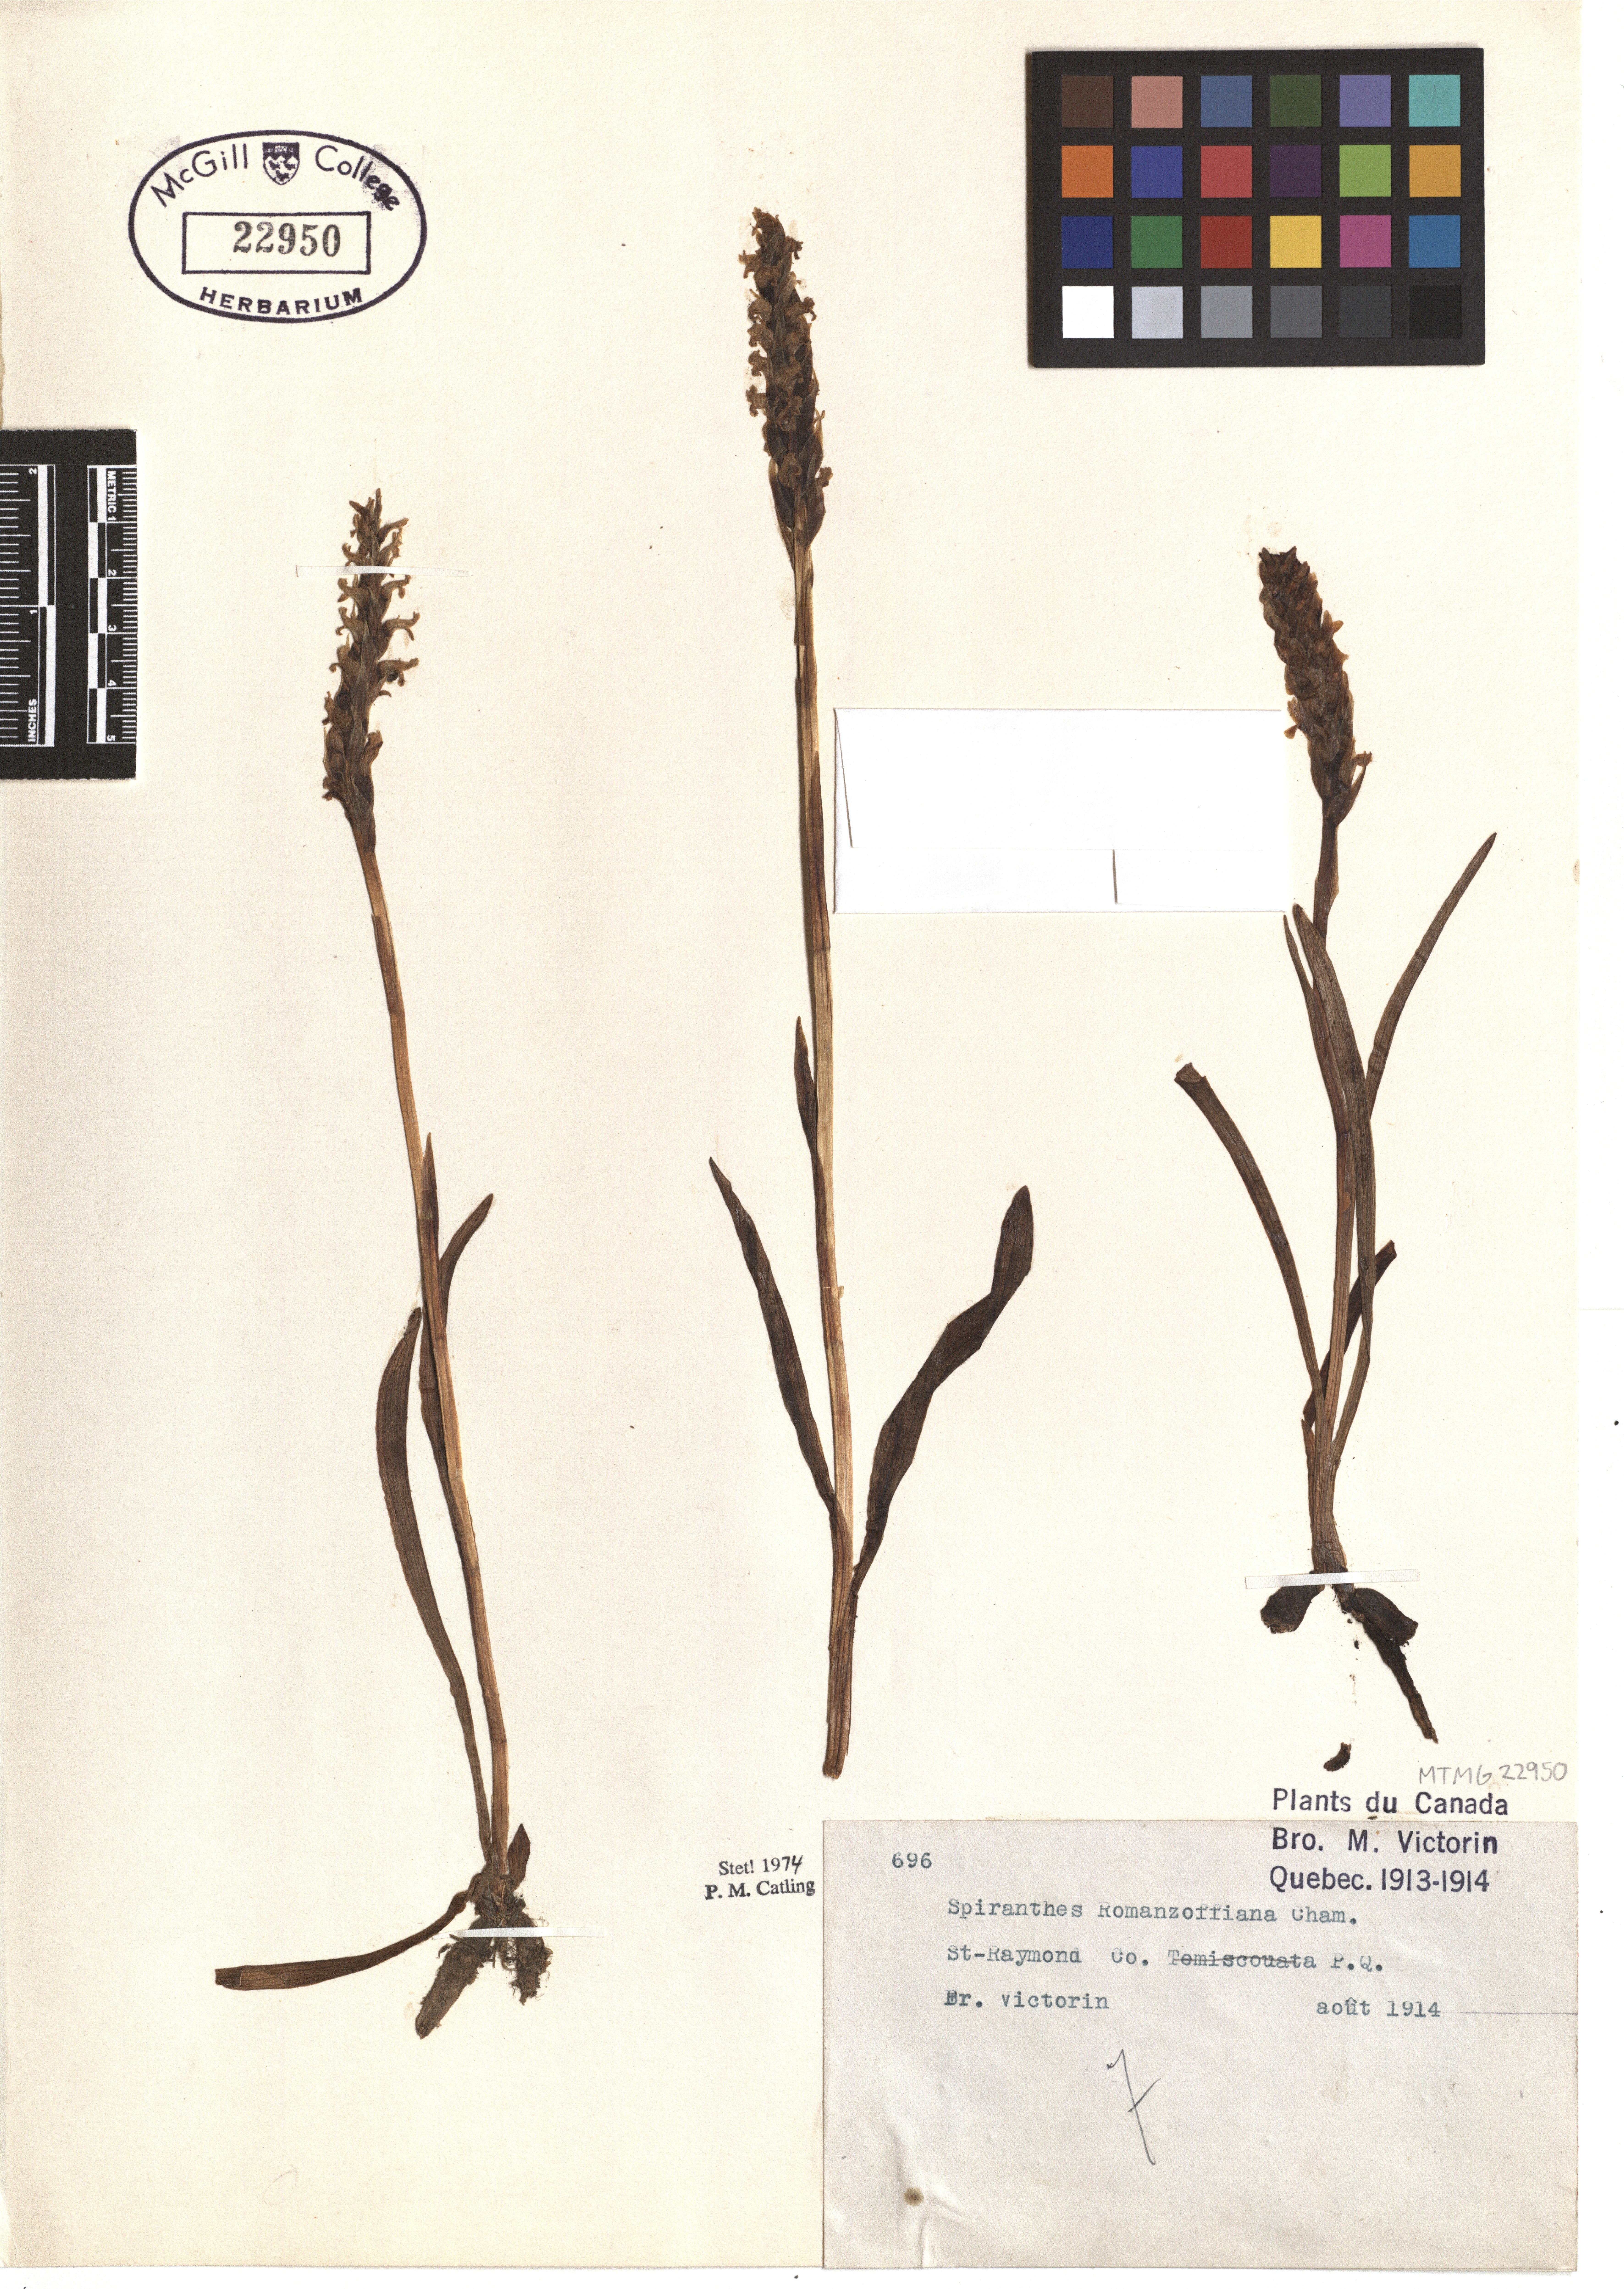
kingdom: Plantae
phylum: Tracheophyta
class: Liliopsida
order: Asparagales
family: Orchidaceae
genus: Spiranthes
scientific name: Spiranthes romanzoffiana
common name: Irish lady's-tresses
